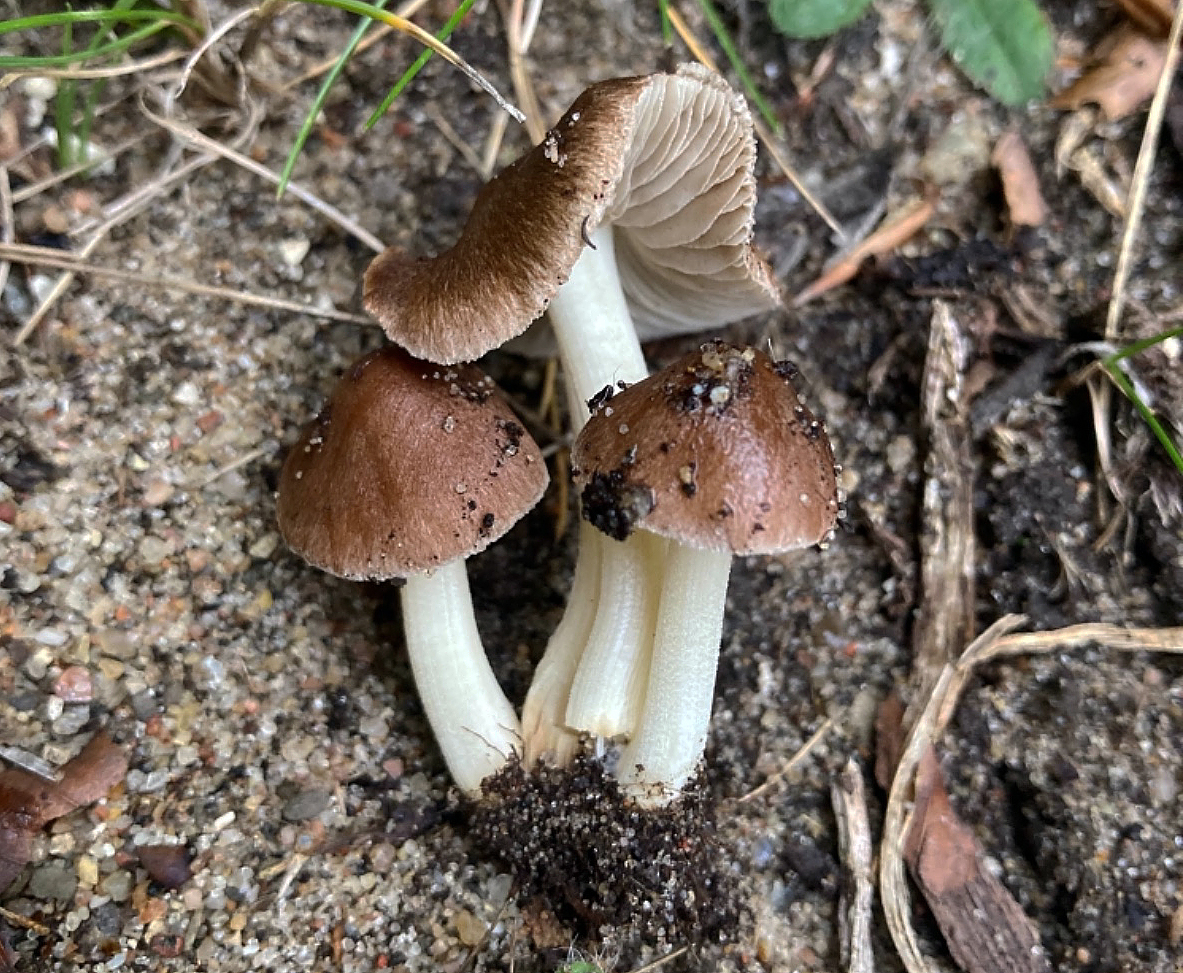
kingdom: Fungi
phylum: Basidiomycota
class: Agaricomycetes
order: Agaricales
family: Inocybaceae
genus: Inocybe
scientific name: Inocybe phaeoleuca
